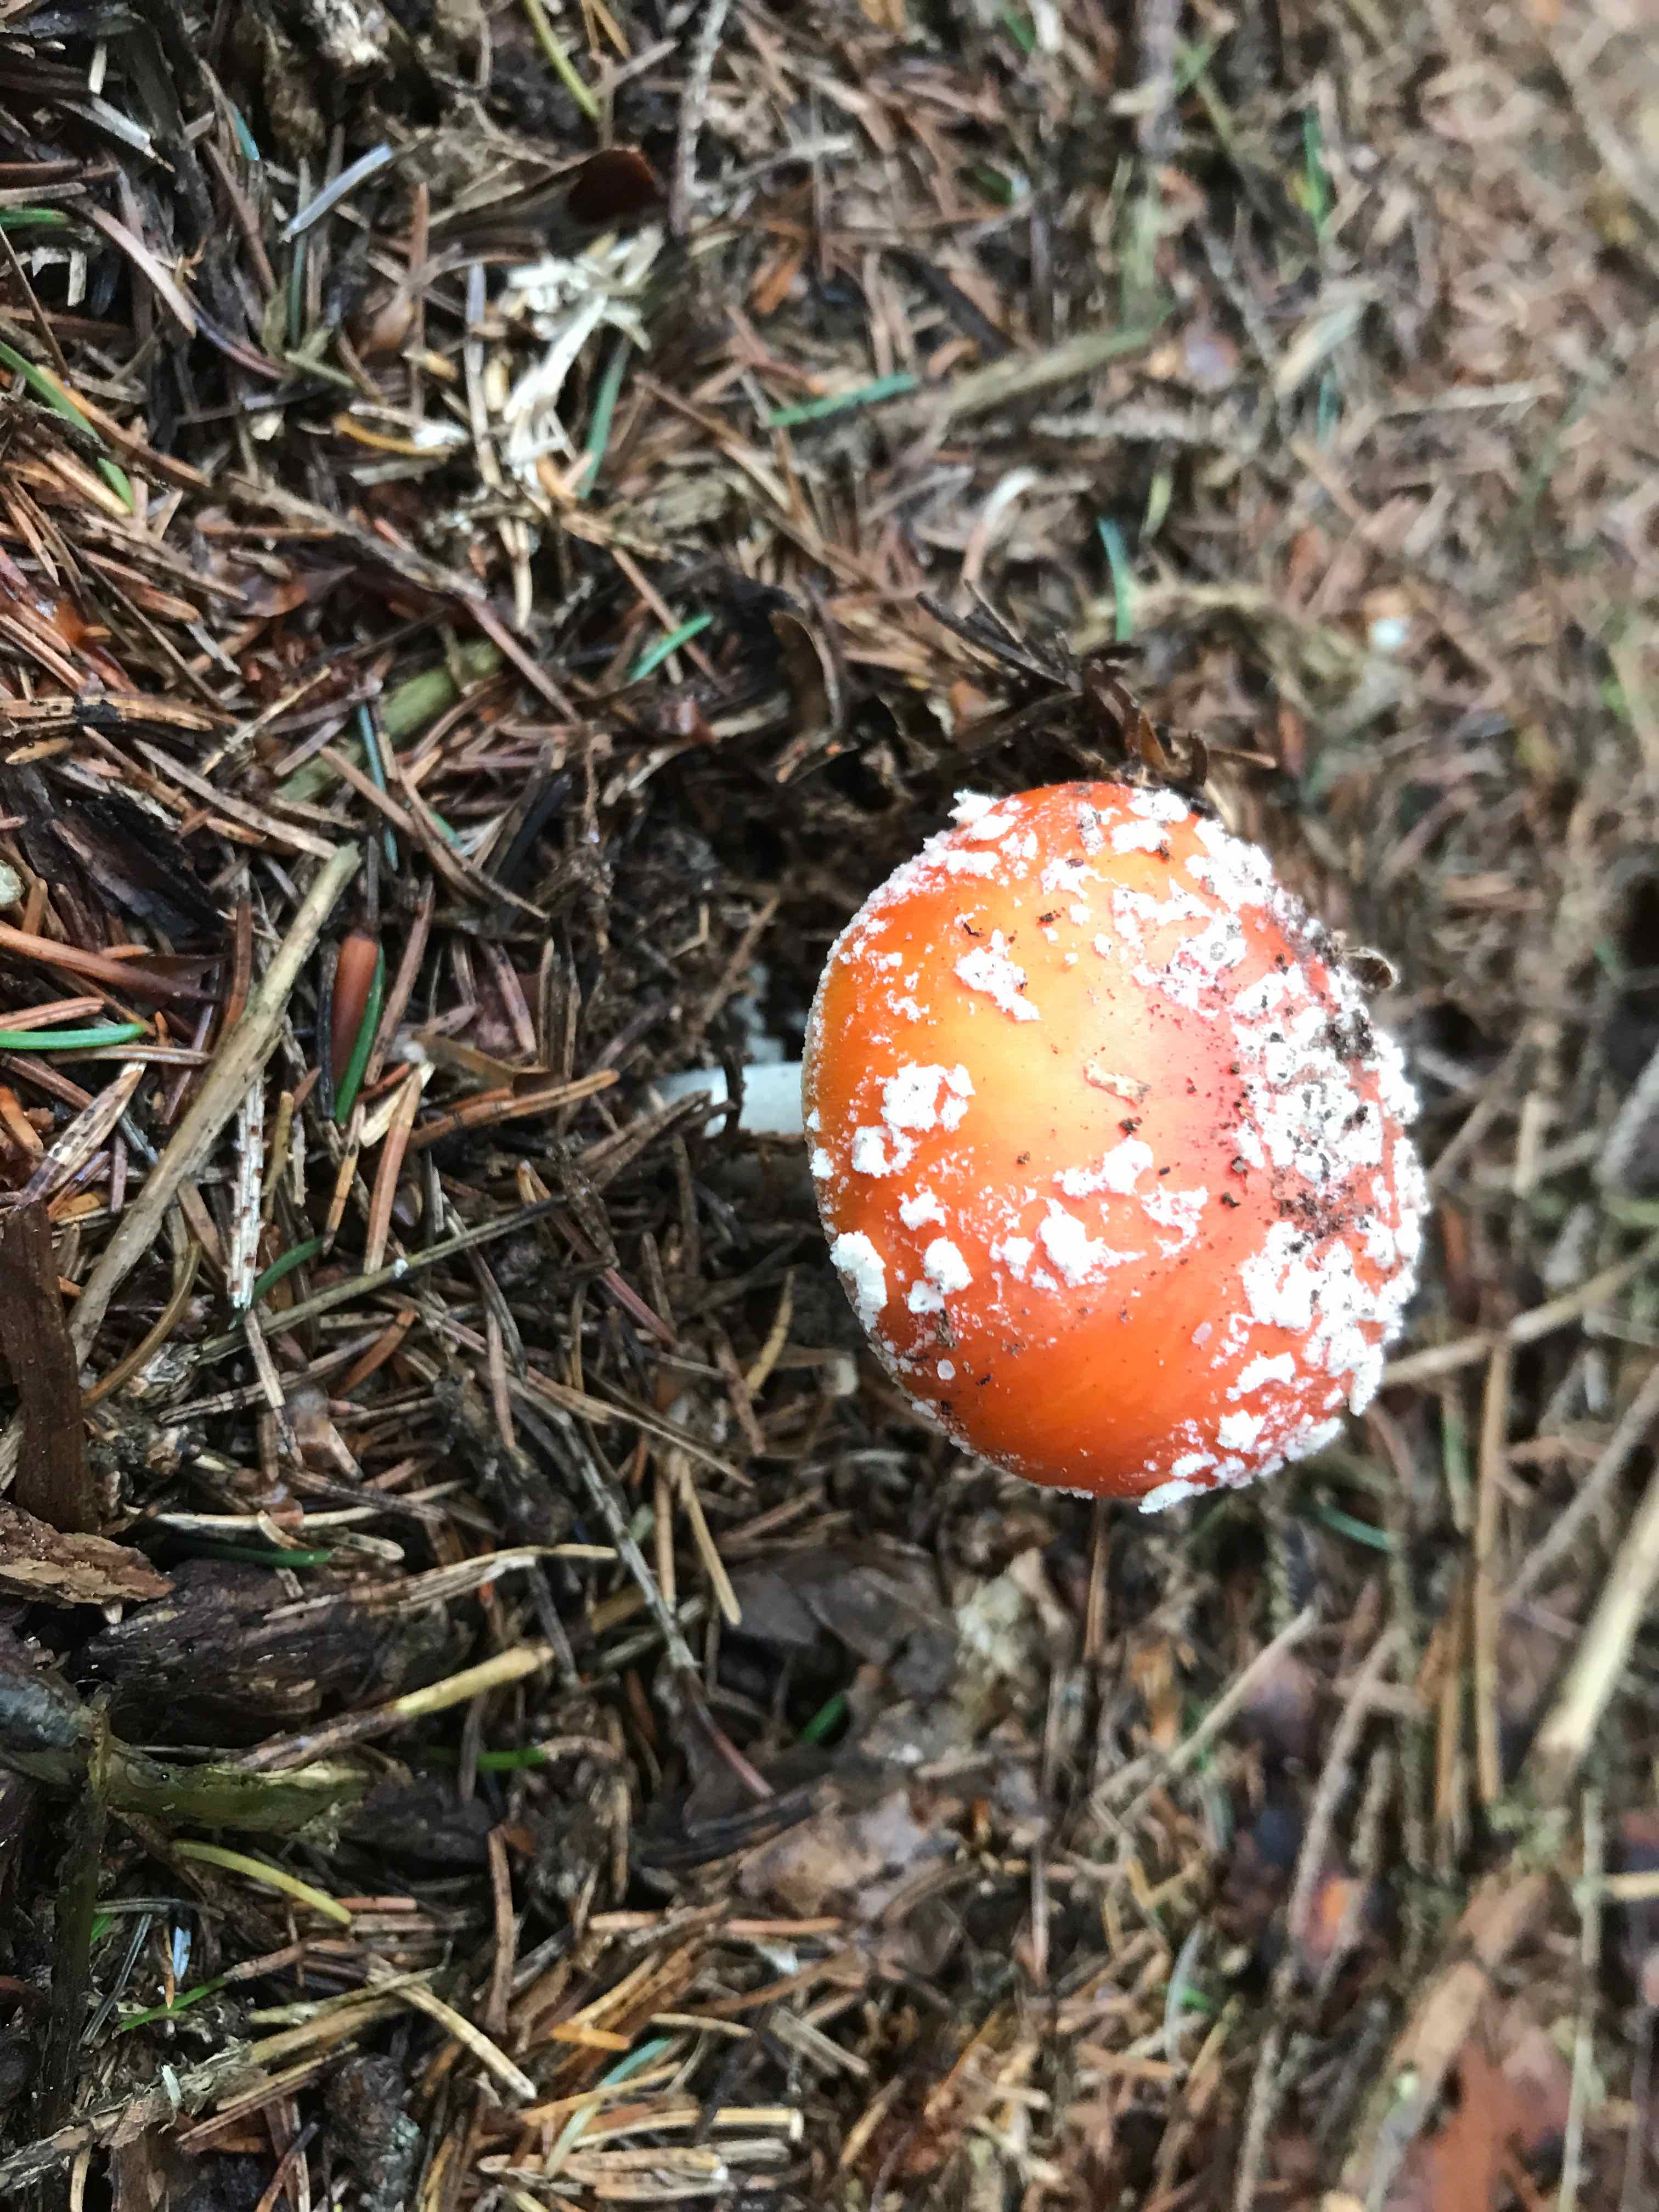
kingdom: Fungi
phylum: Basidiomycota
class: Agaricomycetes
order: Agaricales
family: Amanitaceae
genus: Amanita
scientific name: Amanita muscaria
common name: rød fluesvamp
